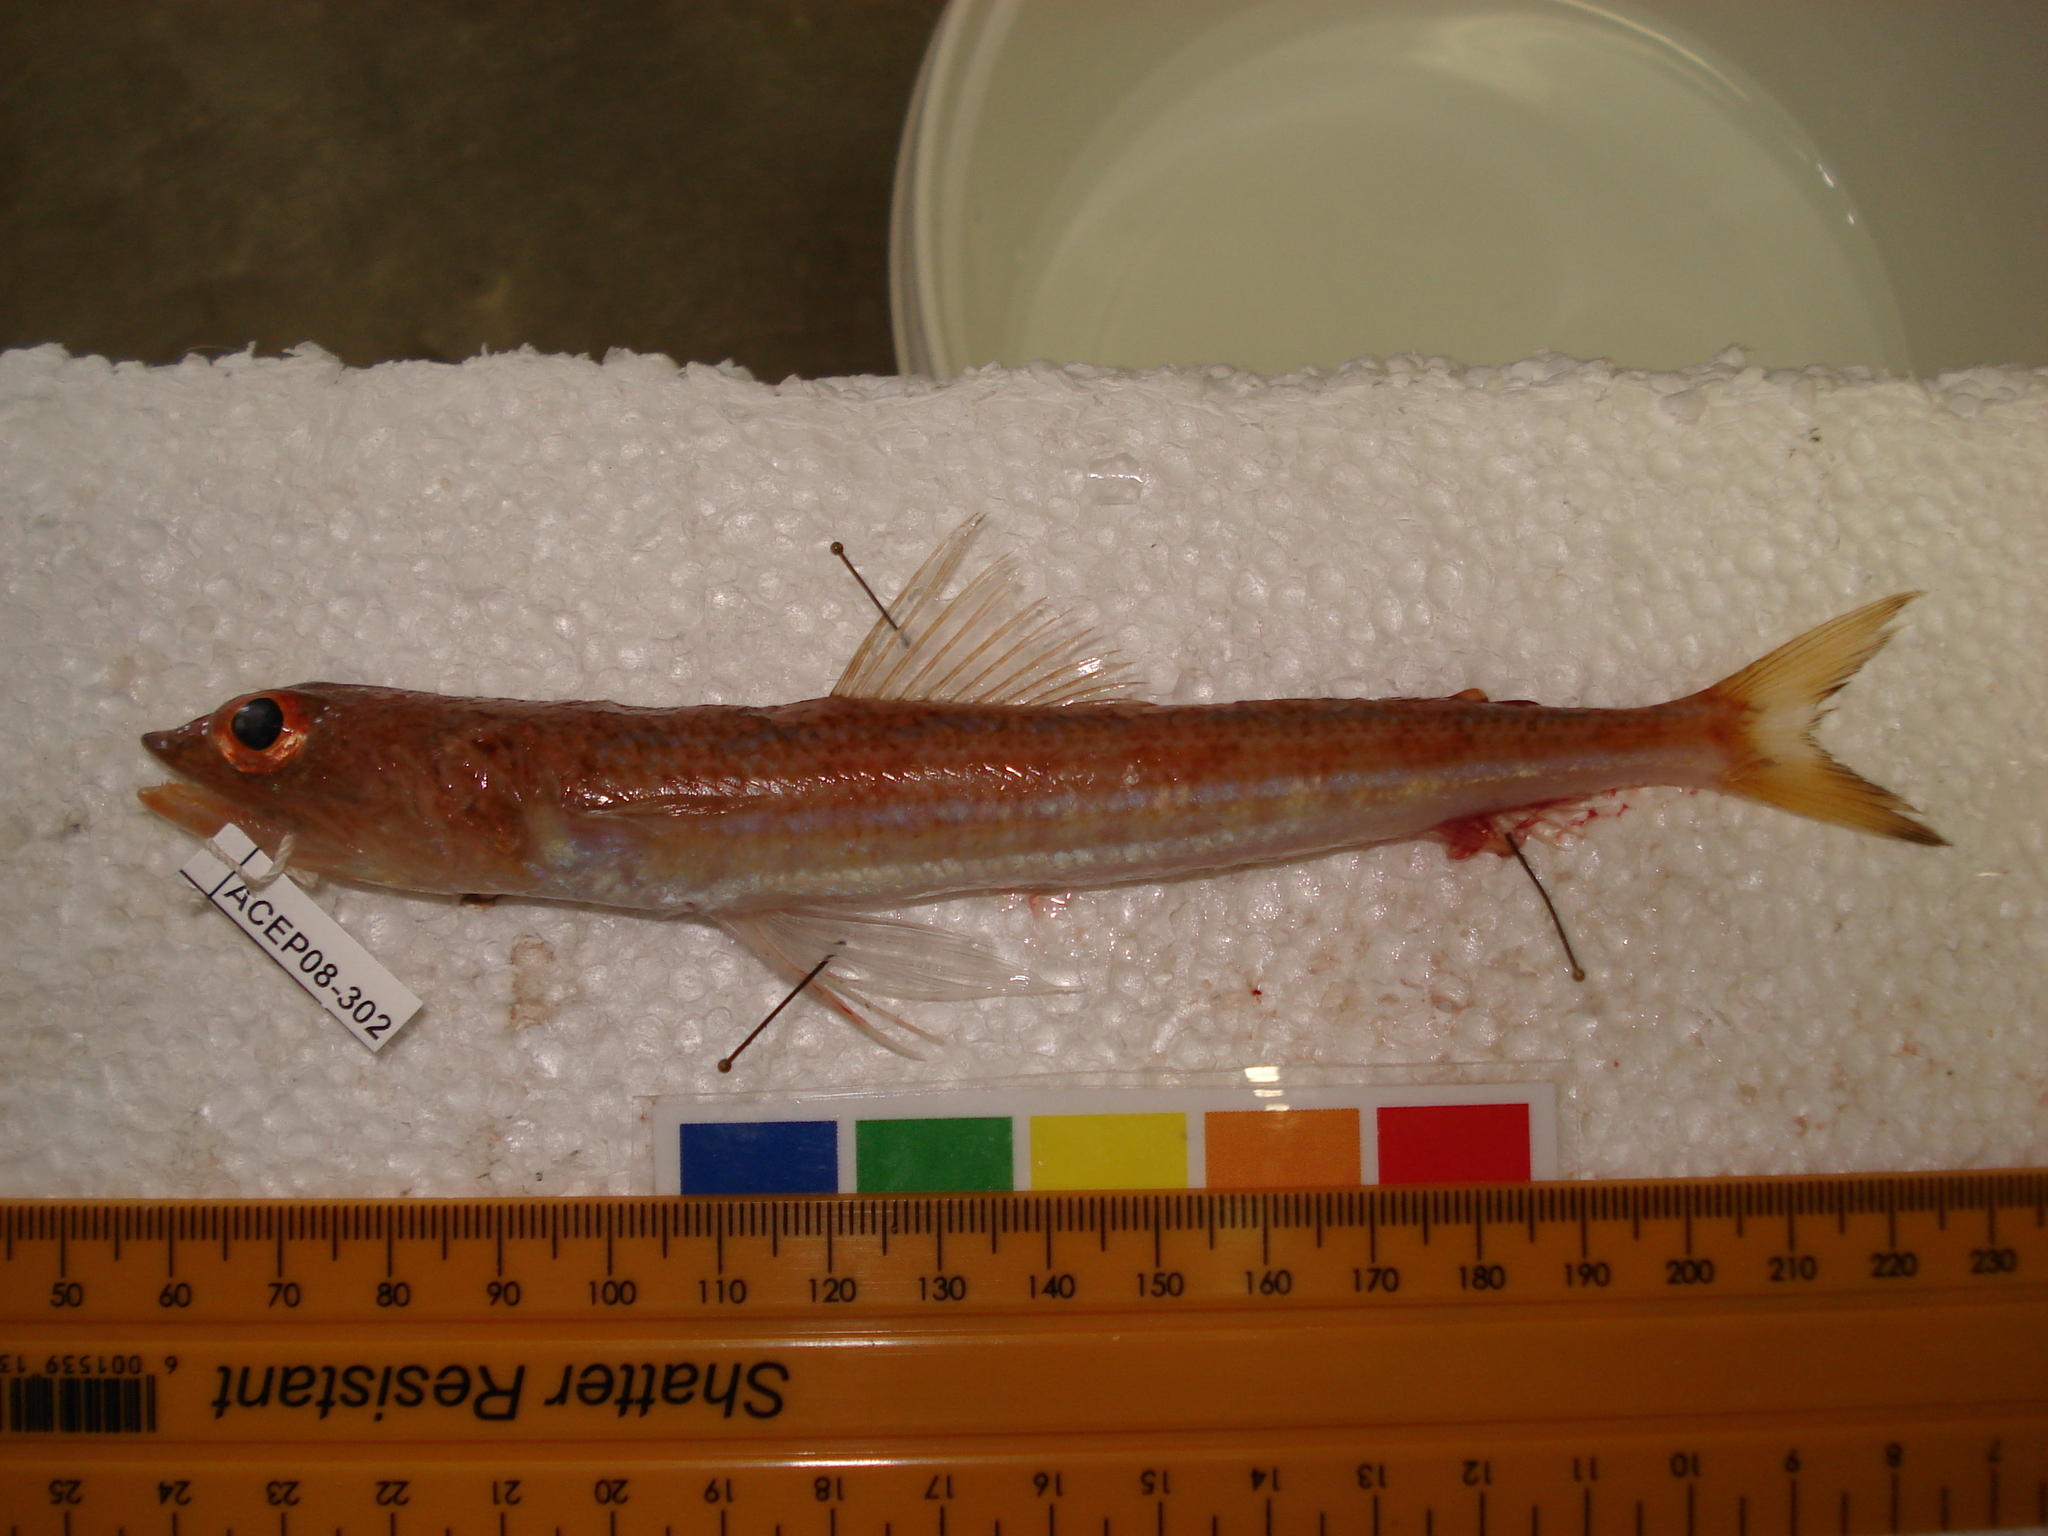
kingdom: Animalia
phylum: Chordata
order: Aulopiformes
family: Synodontidae
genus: Synodus
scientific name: Synodus indicus
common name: Indian lizardfish
